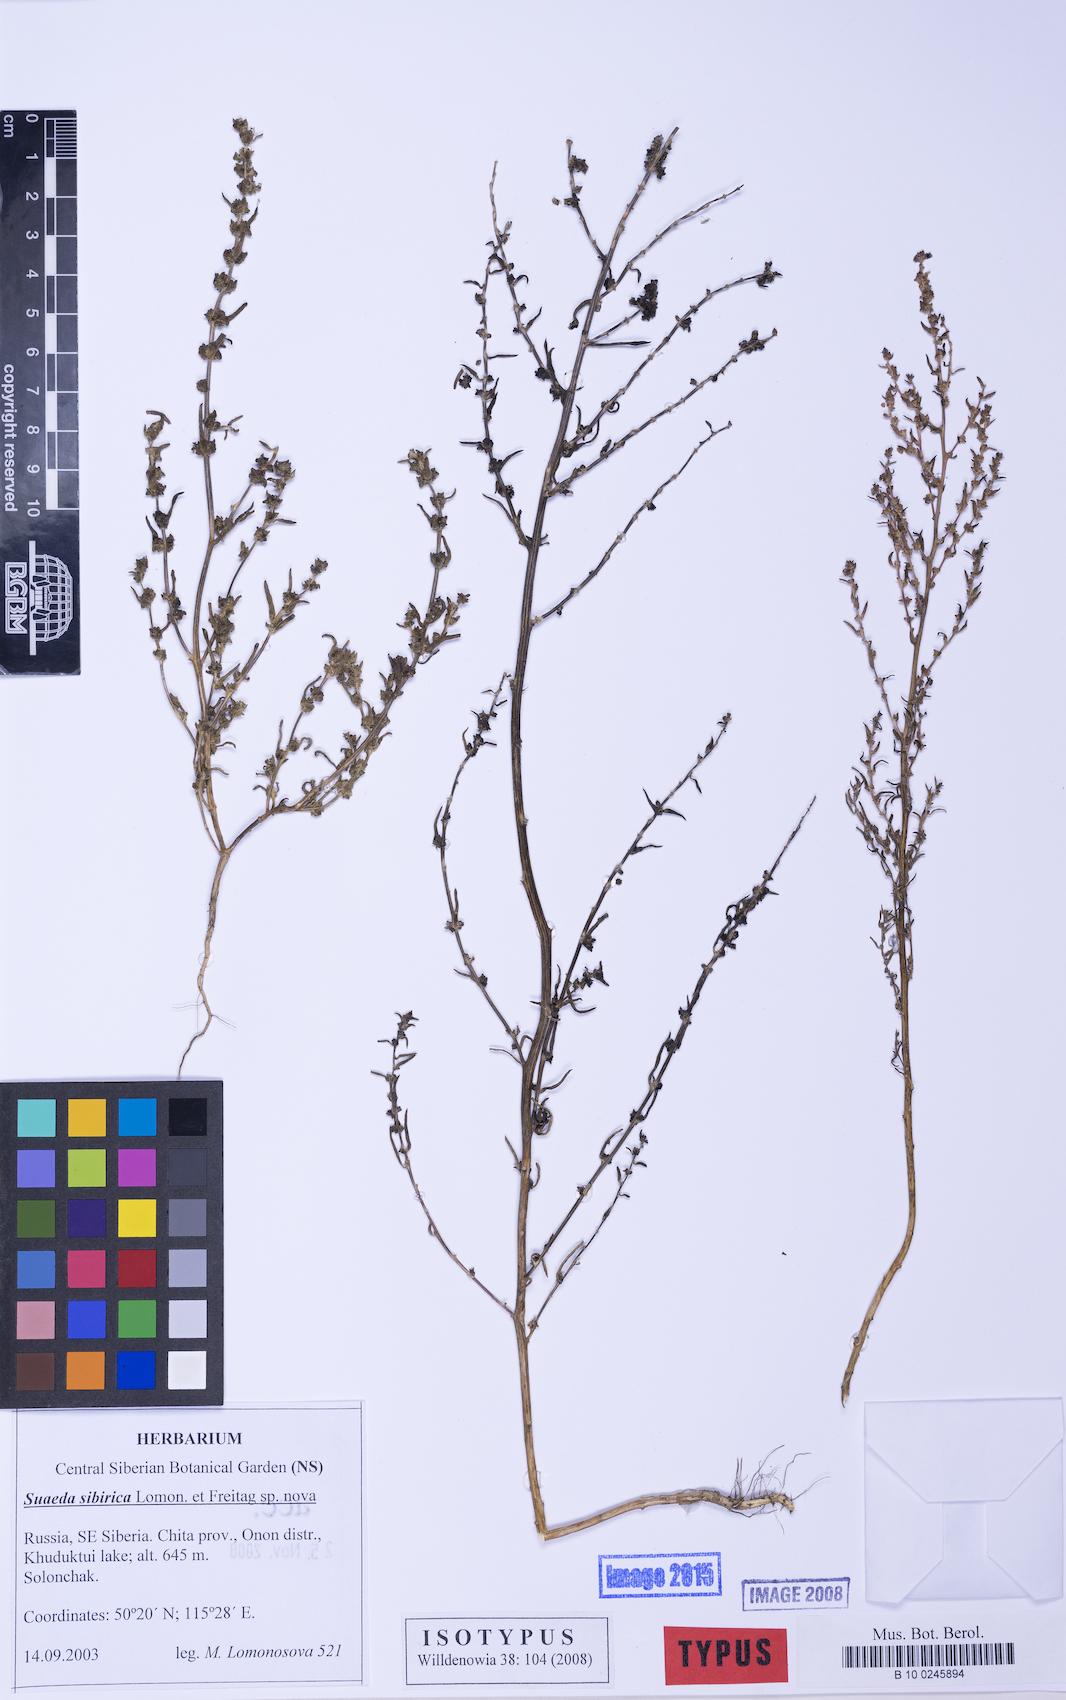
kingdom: Plantae
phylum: Tracheophyta
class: Magnoliopsida
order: Caryophyllales
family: Amaranthaceae
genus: Suaeda
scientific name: Suaeda sibirica
